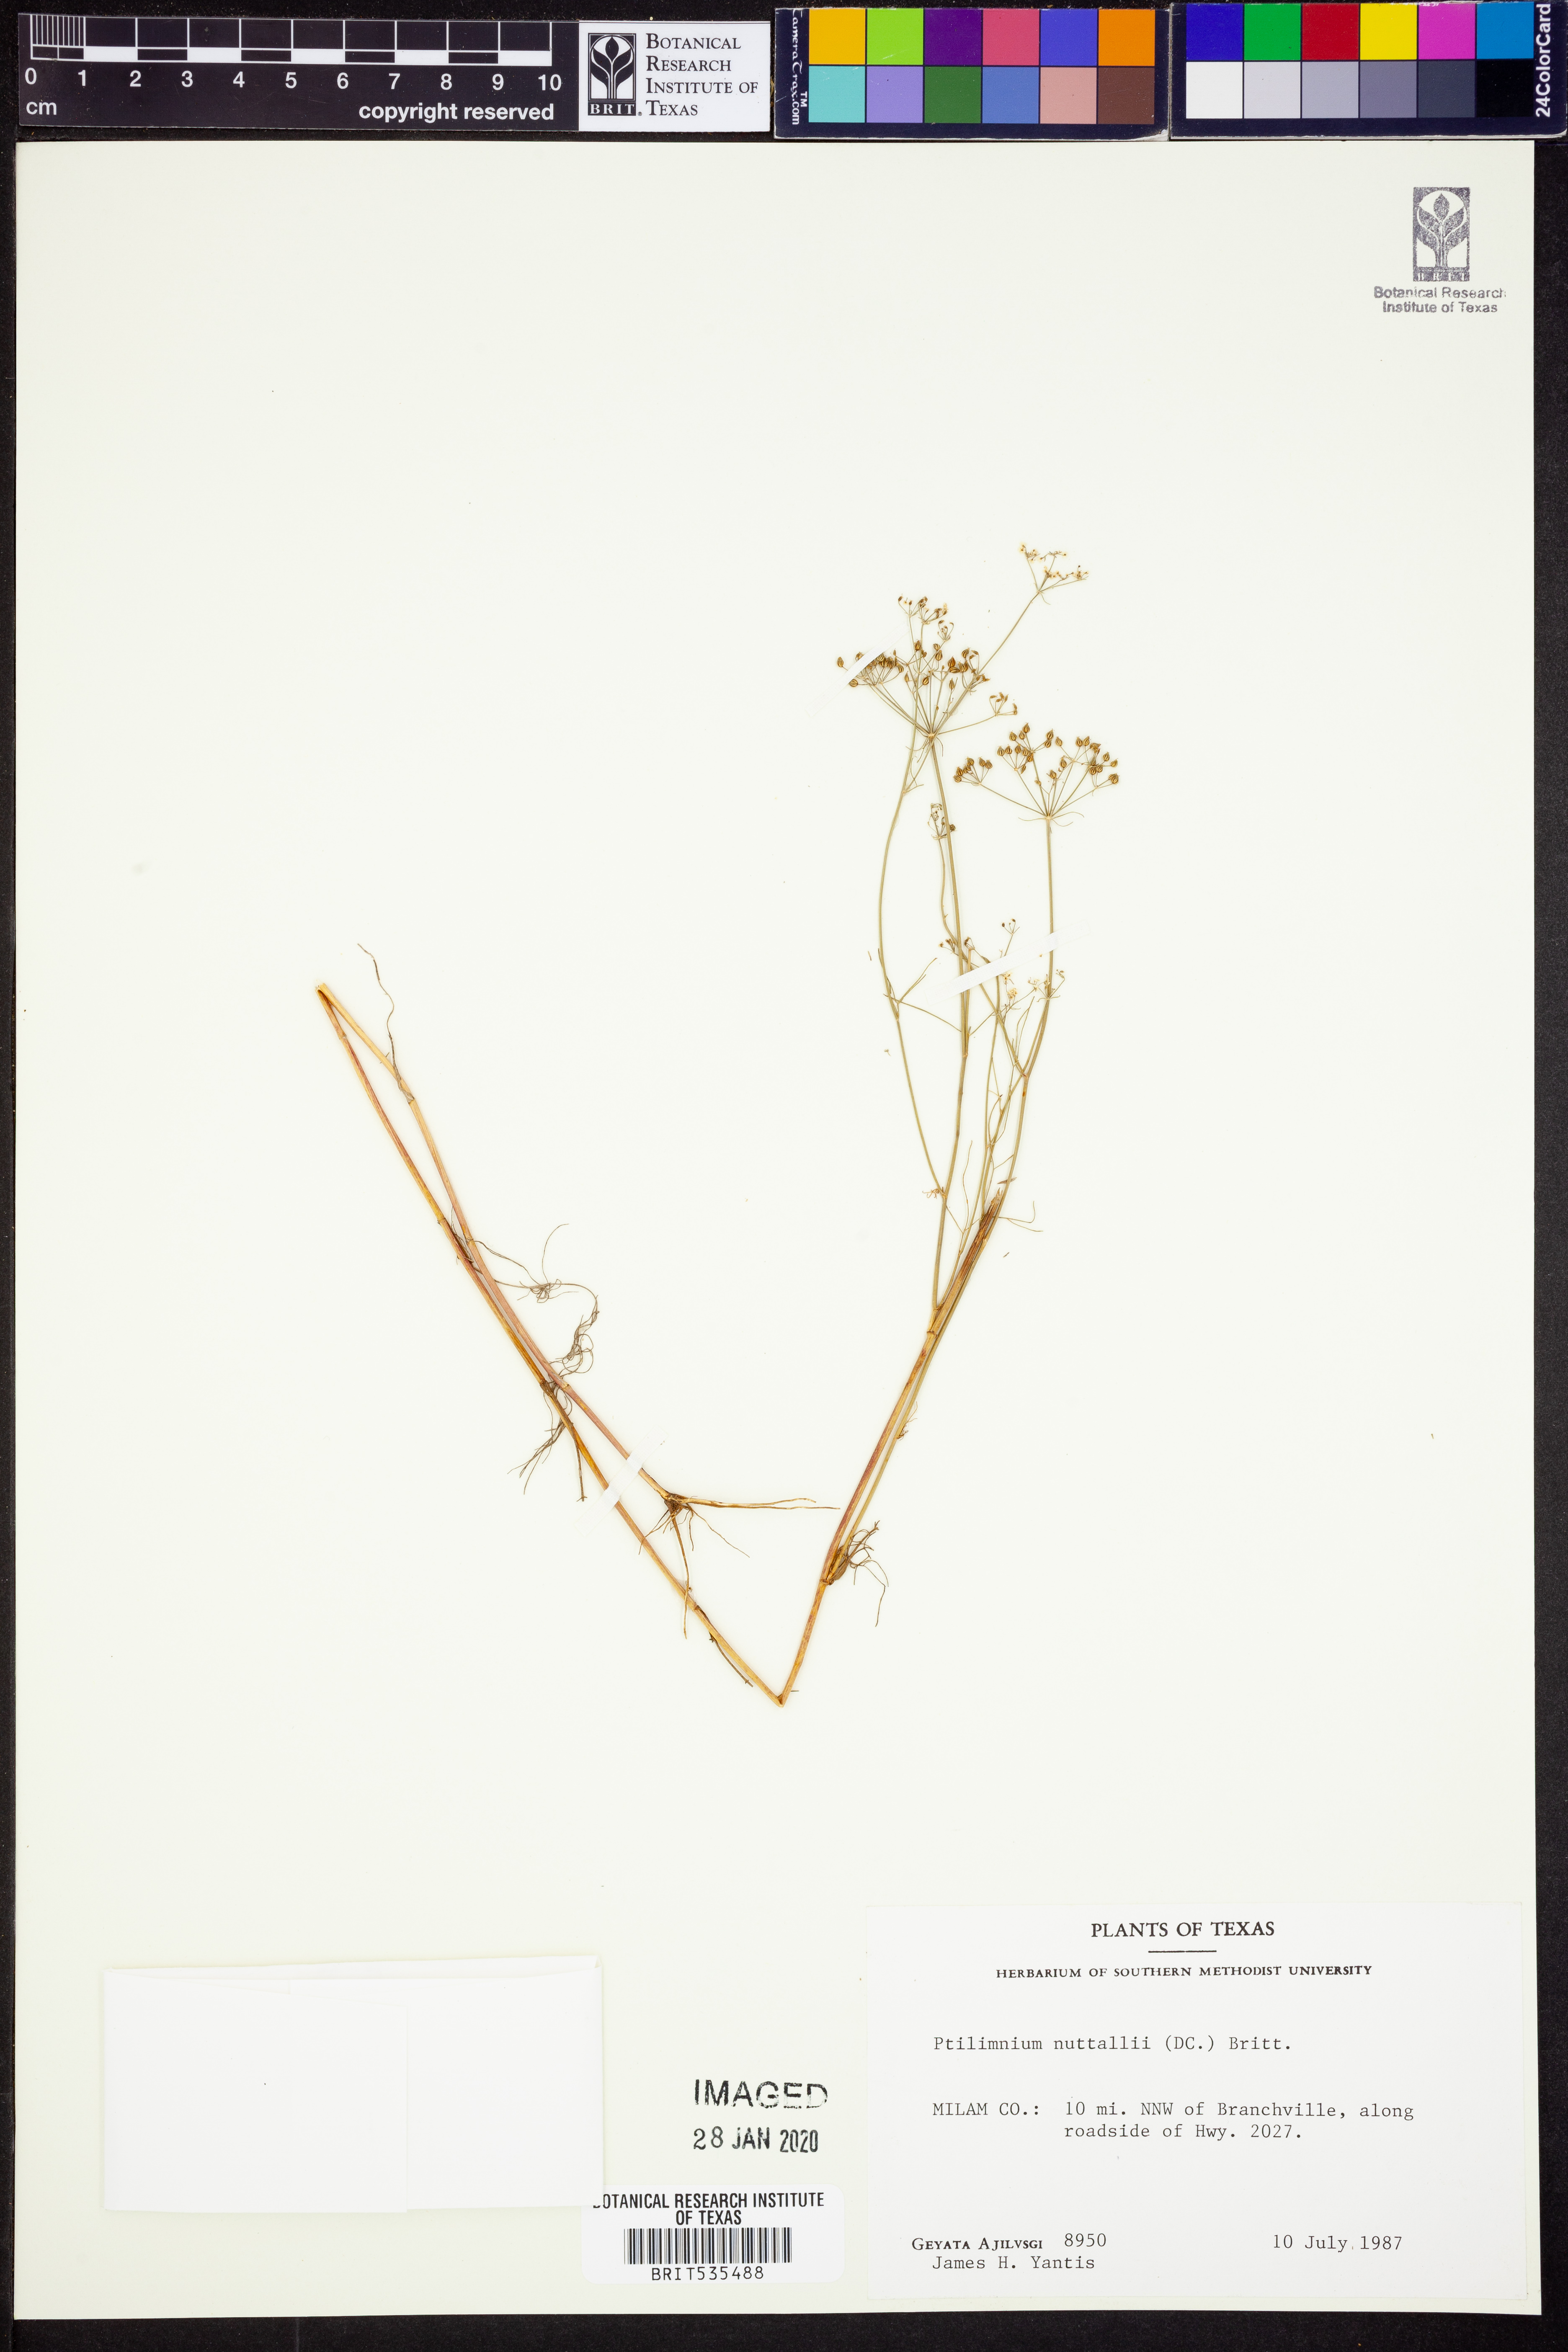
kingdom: Plantae
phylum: Tracheophyta
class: Magnoliopsida
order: Apiales
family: Apiaceae
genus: Ptilimnium
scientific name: Ptilimnium nuttallii
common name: Ozark bishop's-weed
